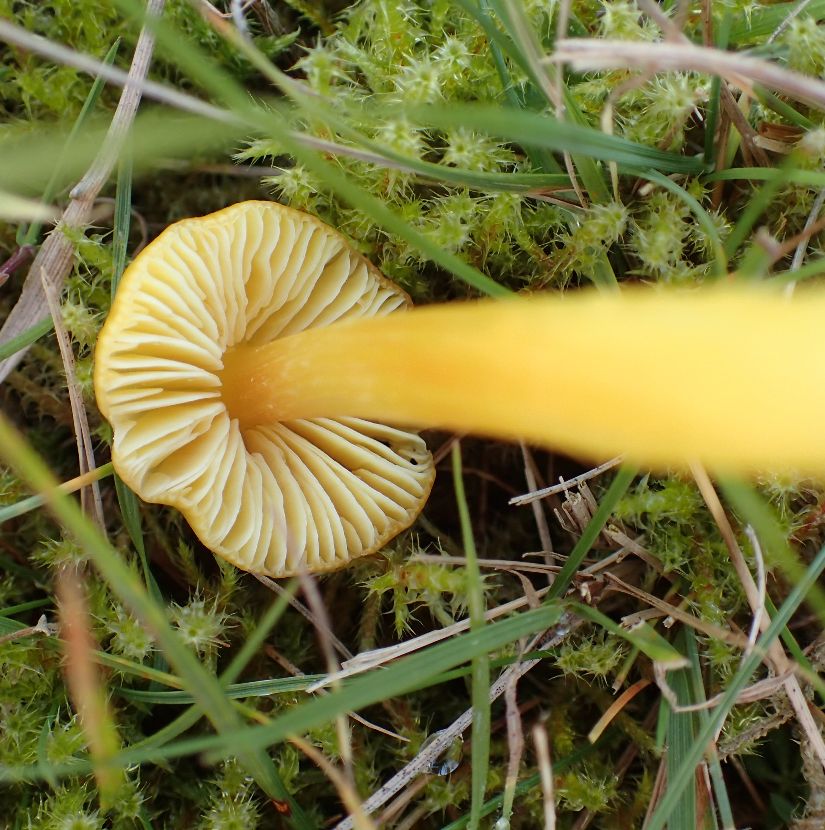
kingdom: Fungi
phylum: Basidiomycota
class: Agaricomycetes
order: Agaricales
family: Hygrophoraceae
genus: Hygrocybe
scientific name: Hygrocybe acutoconica
